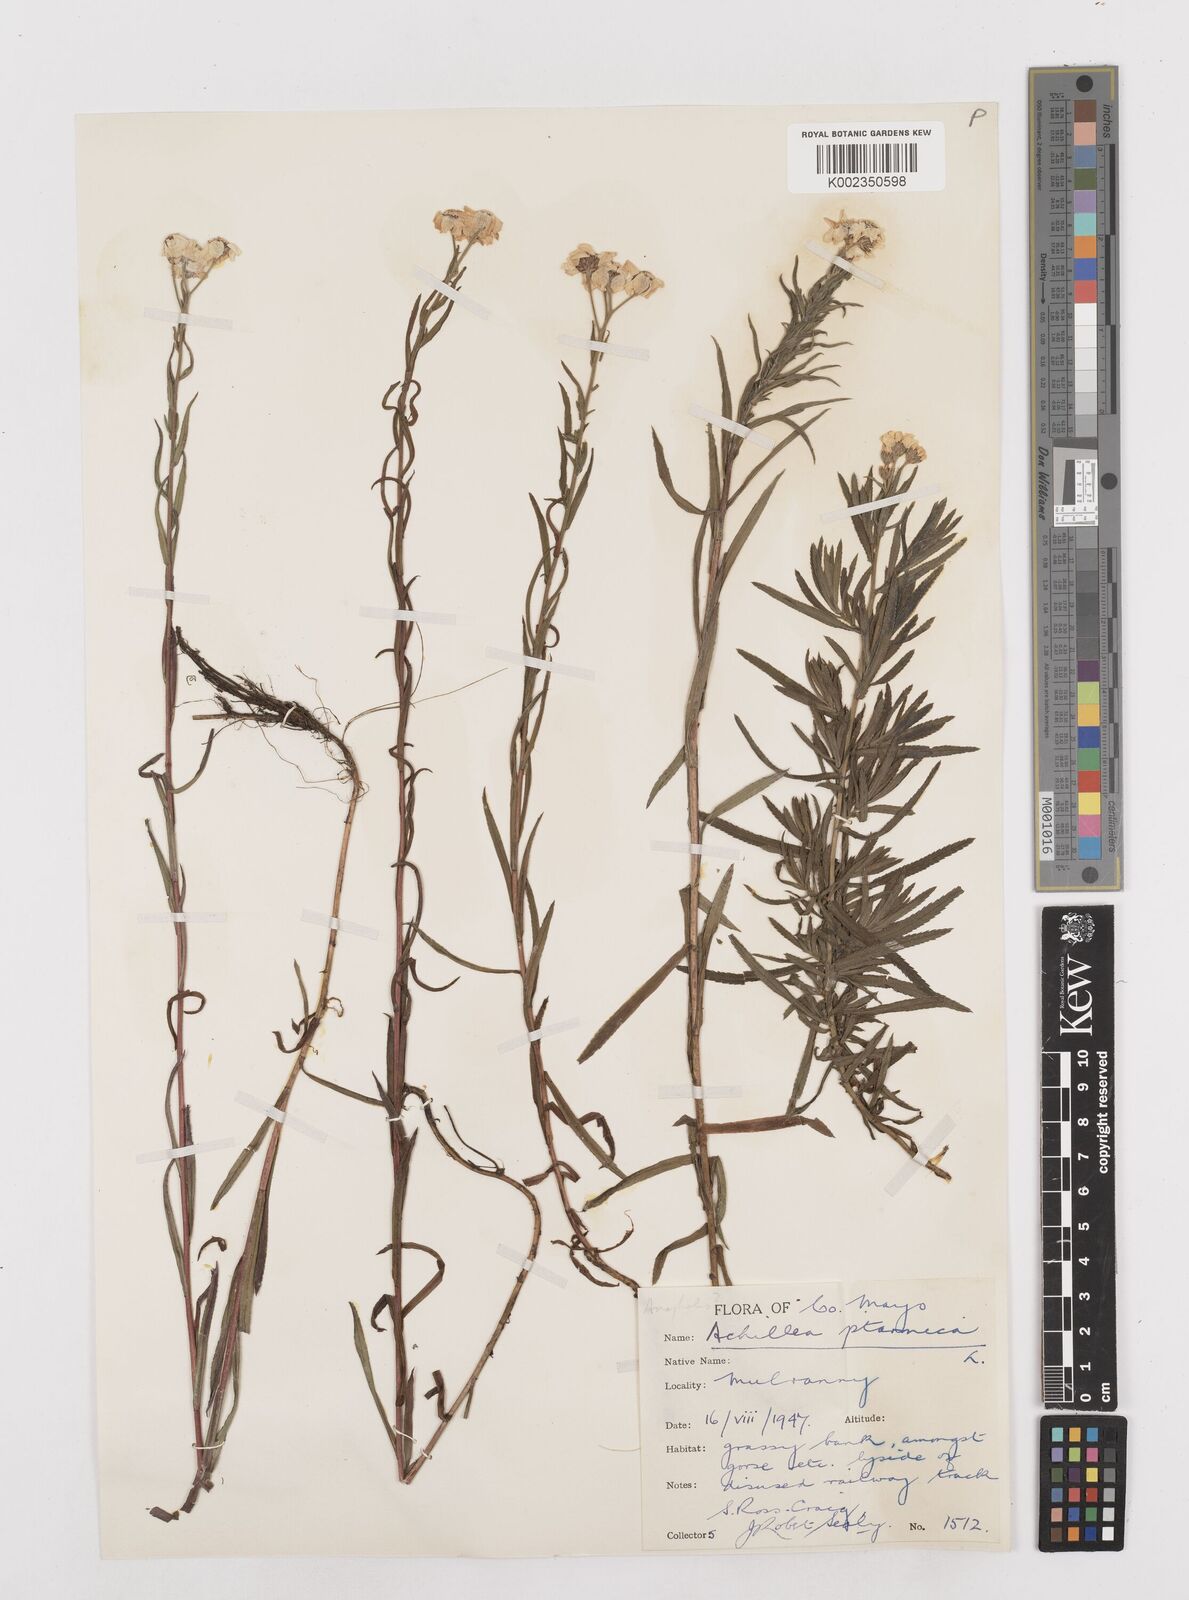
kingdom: Plantae
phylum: Tracheophyta
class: Magnoliopsida
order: Asterales
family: Asteraceae
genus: Achillea
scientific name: Achillea
